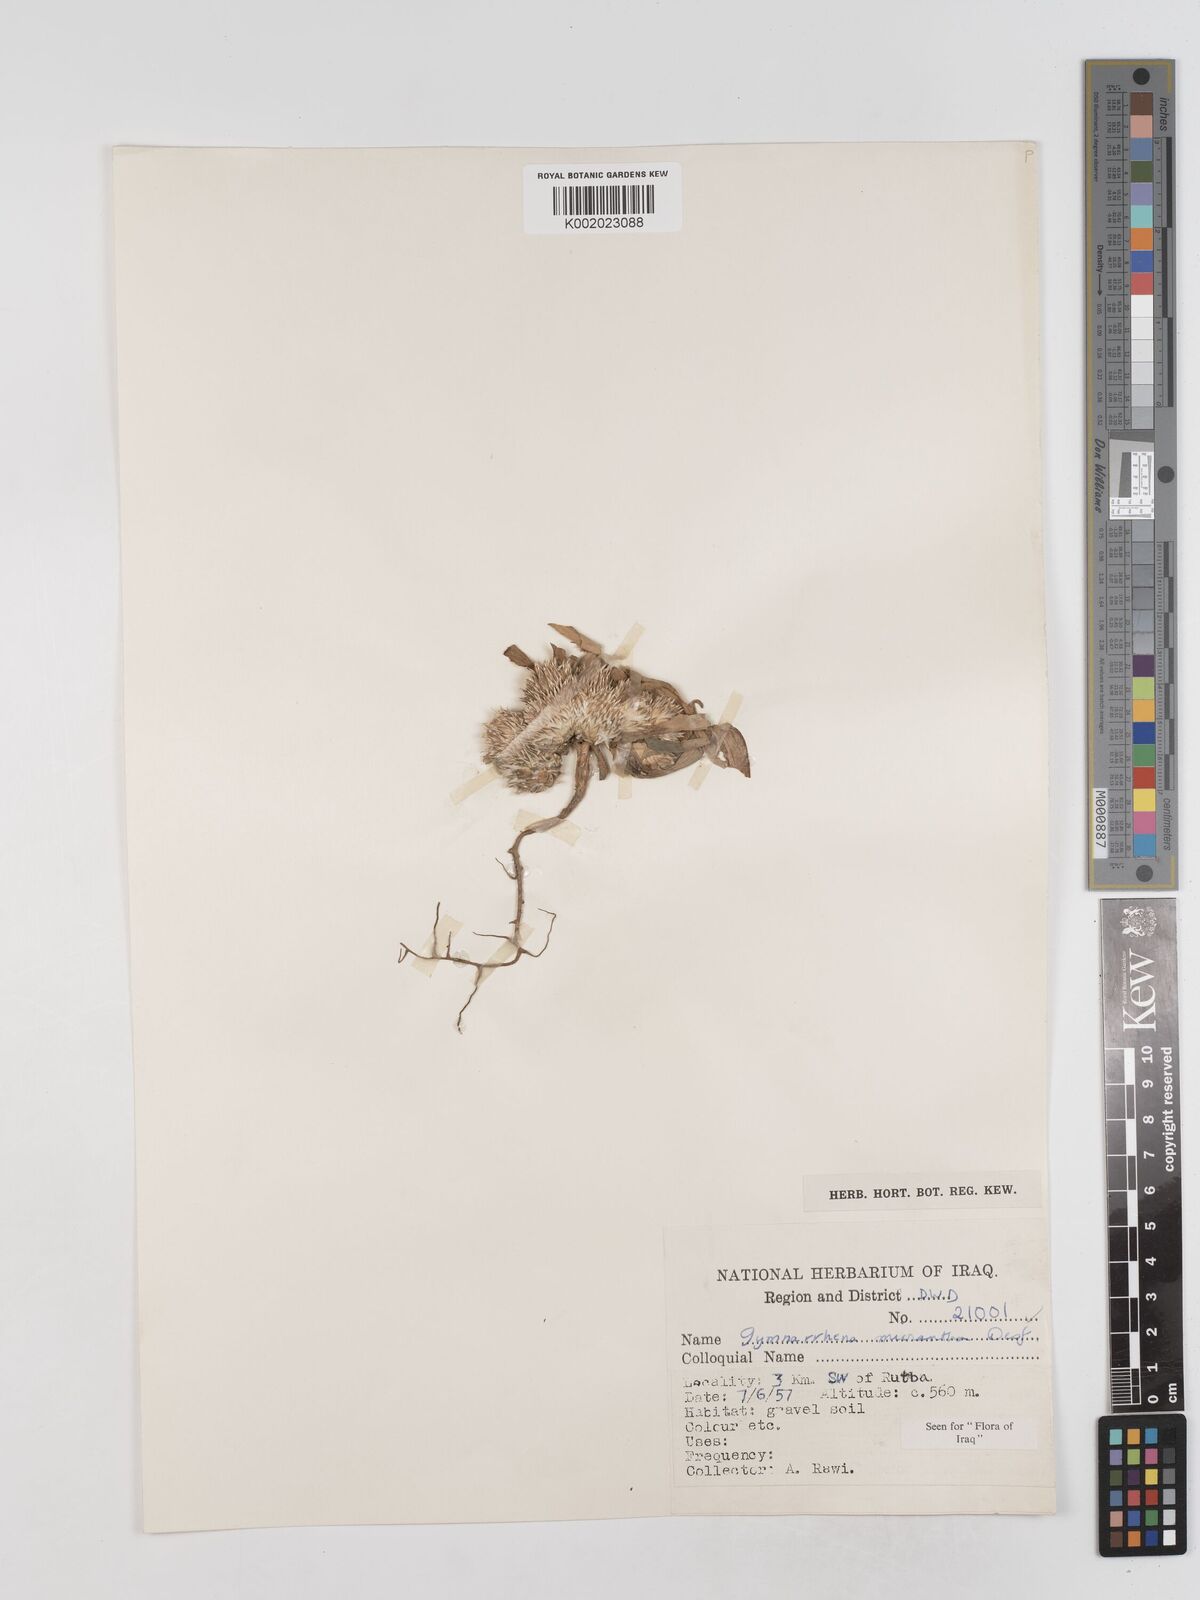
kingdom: Plantae
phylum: Tracheophyta
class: Magnoliopsida
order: Asterales
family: Asteraceae
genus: Gymnarrhena
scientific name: Gymnarrhena micrantha
